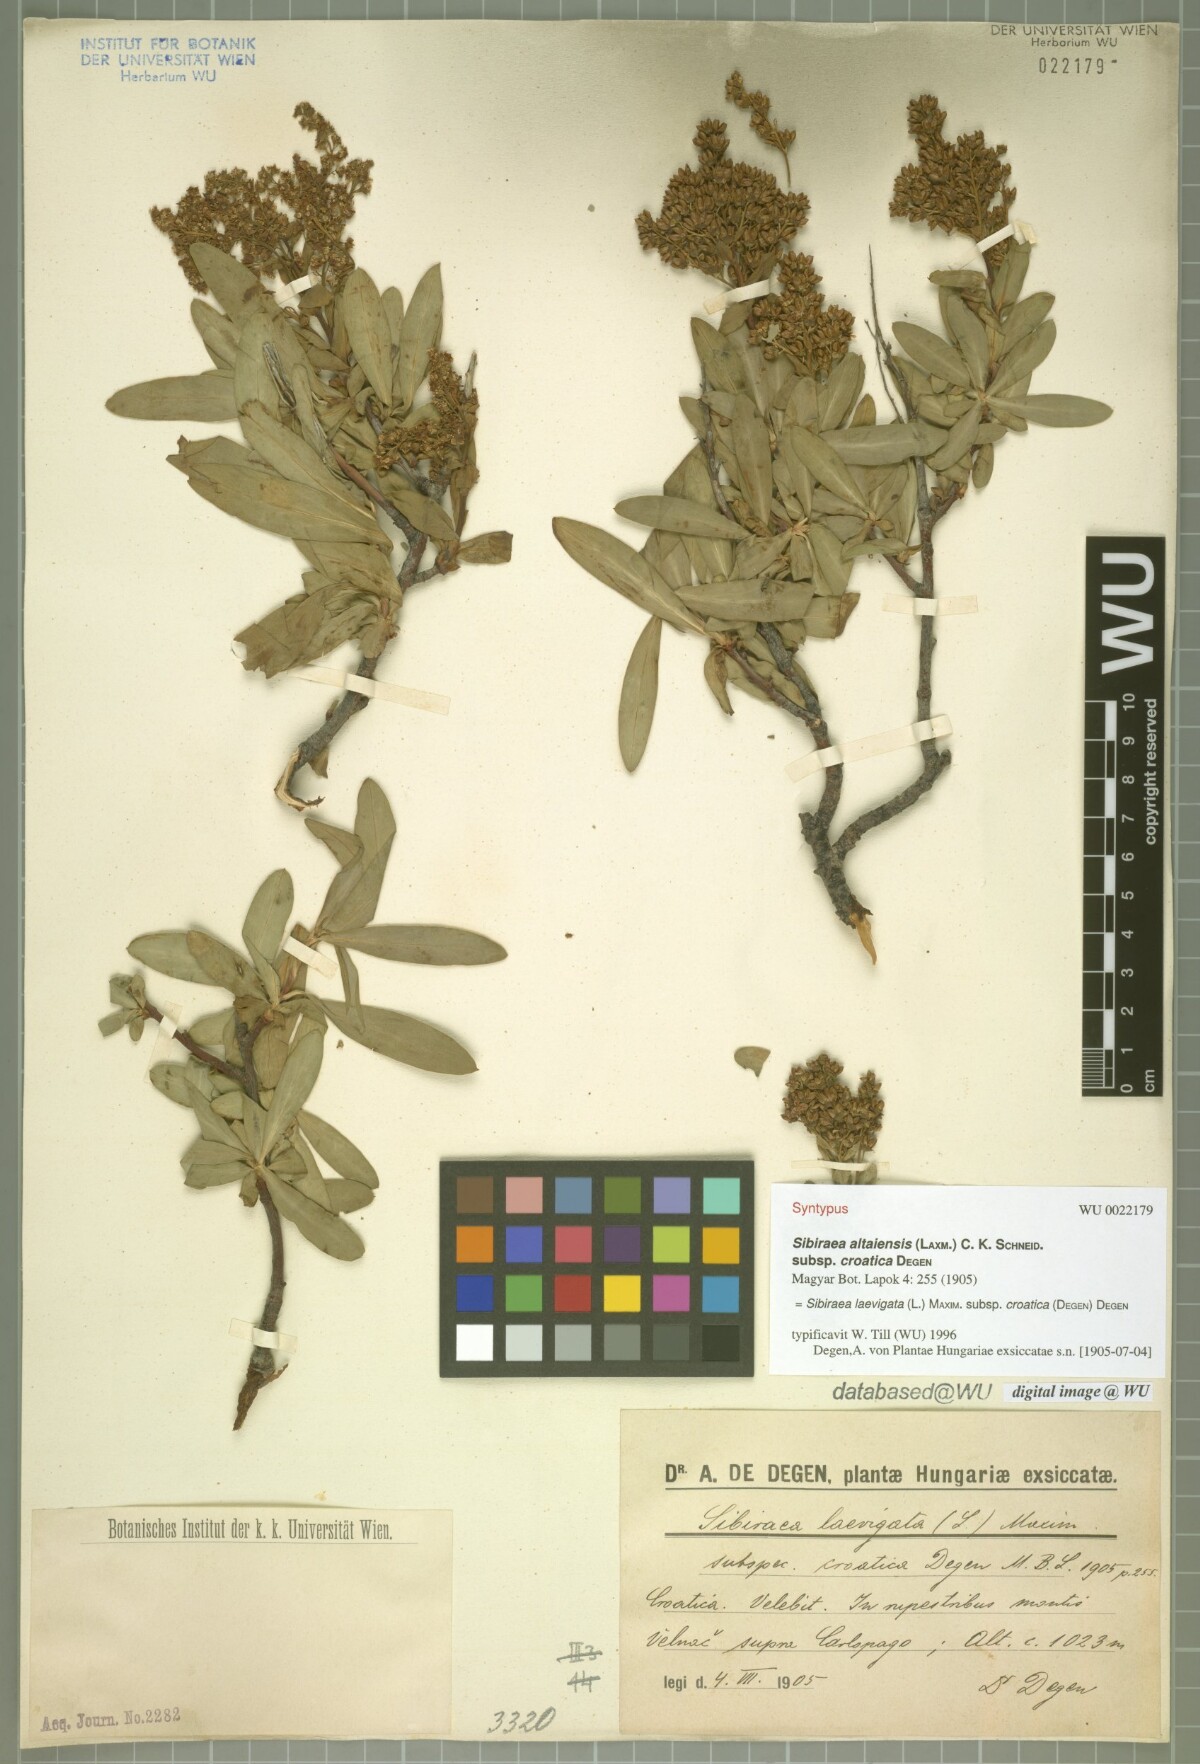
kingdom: Plantae
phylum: Tracheophyta
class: Magnoliopsida
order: Rosales
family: Rosaceae
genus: Sibiraea
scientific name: Sibiraea laevigata
